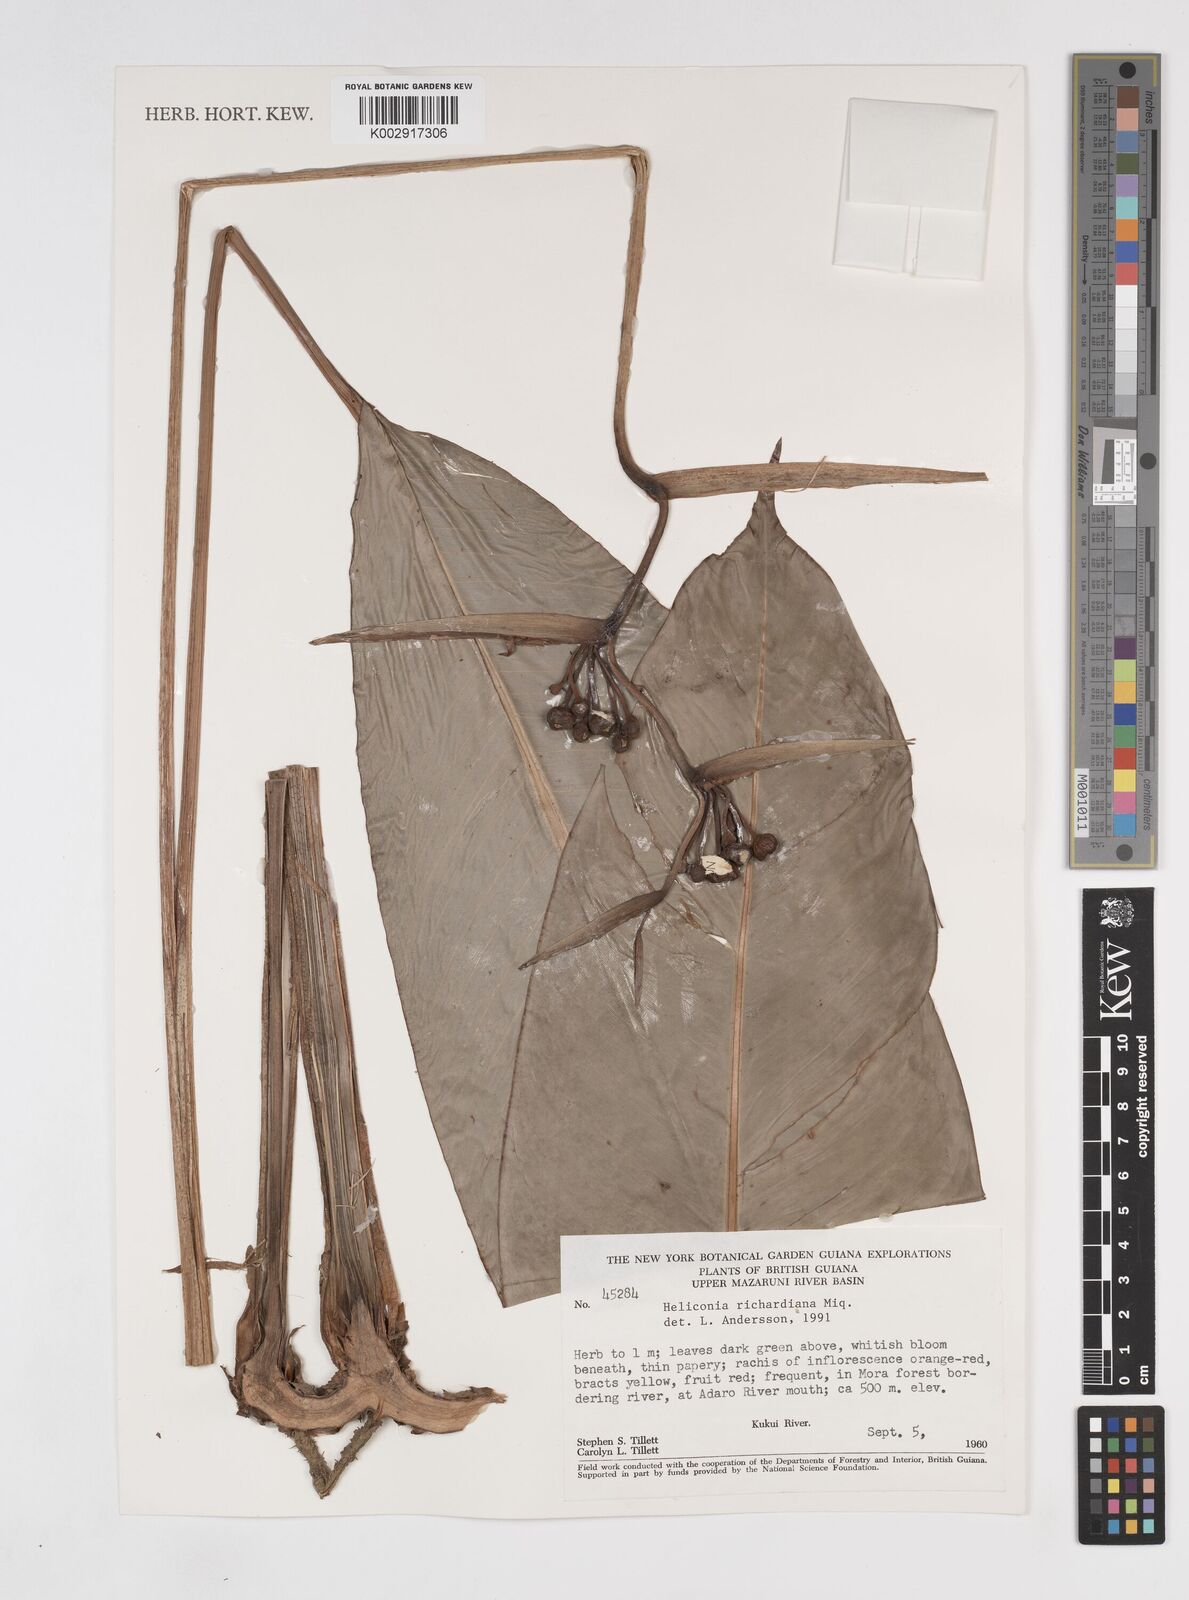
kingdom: Plantae
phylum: Tracheophyta
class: Liliopsida
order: Zingiberales
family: Heliconiaceae
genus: Heliconia
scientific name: Heliconia richardiana
